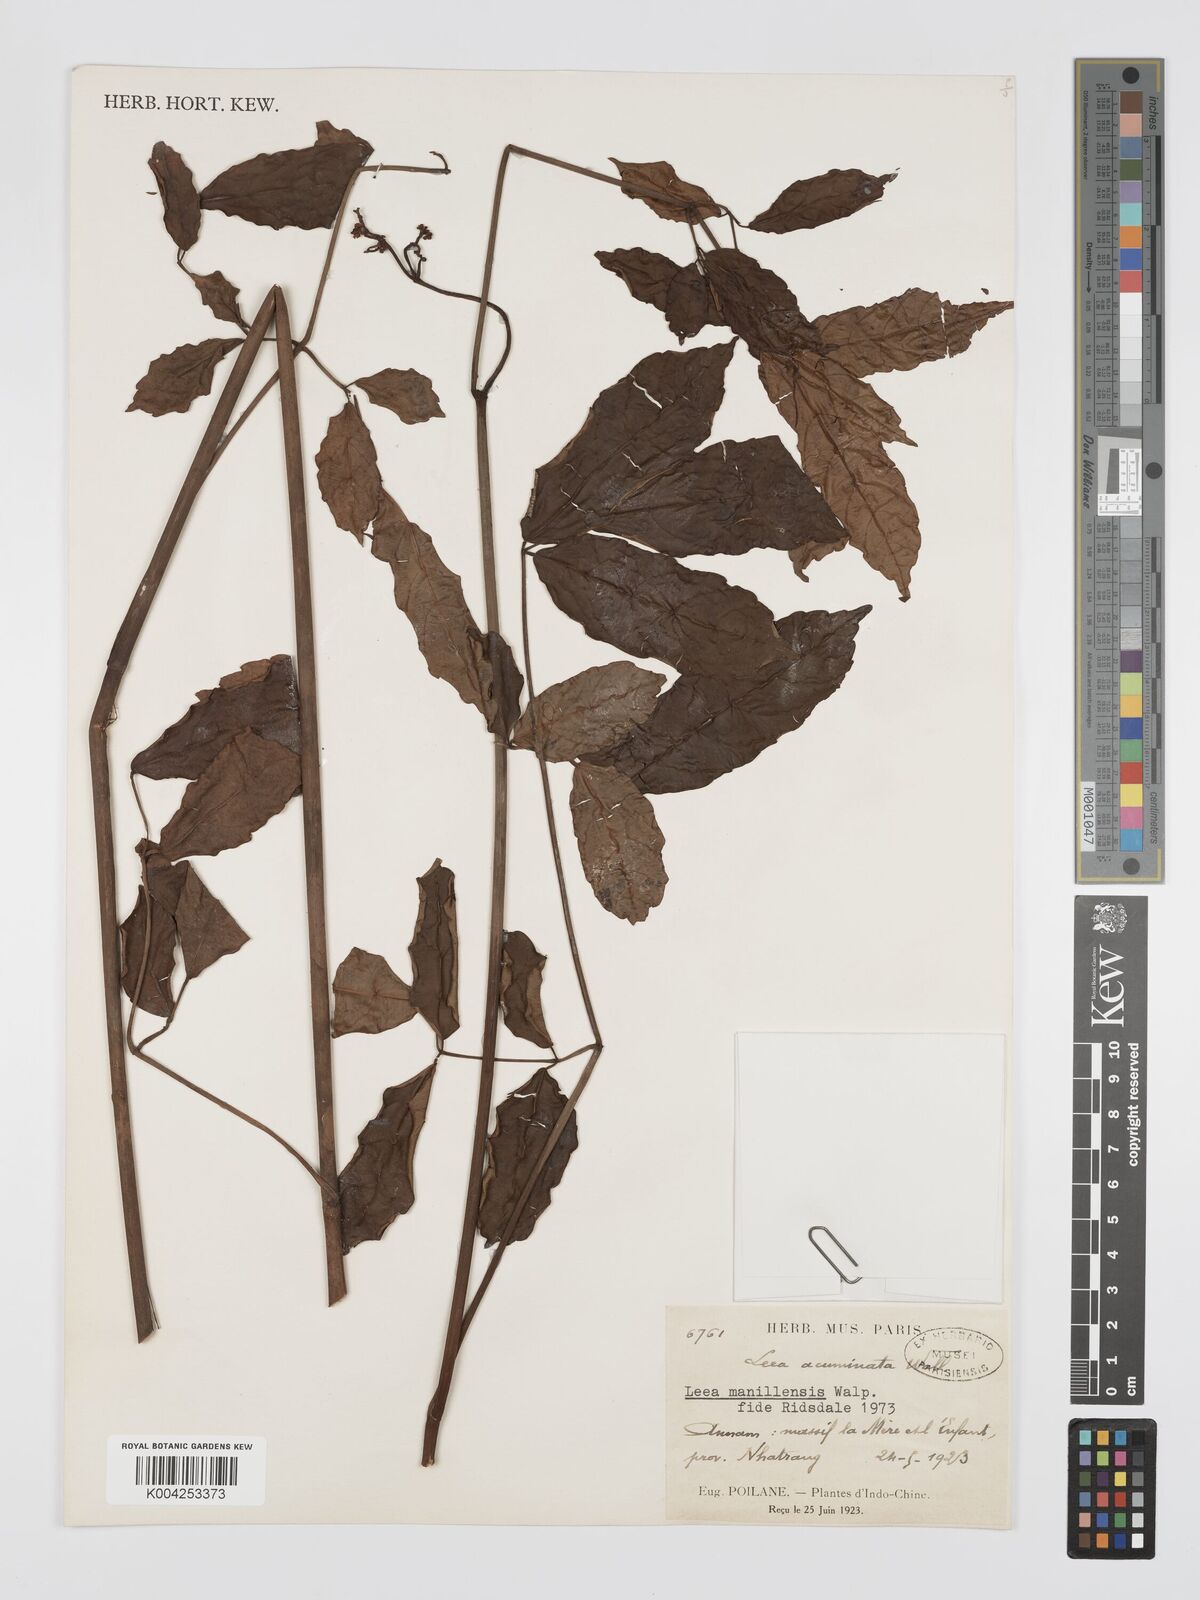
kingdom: Plantae
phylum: Tracheophyta
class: Magnoliopsida
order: Vitales
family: Vitaceae
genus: Leea
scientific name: Leea guineensis
